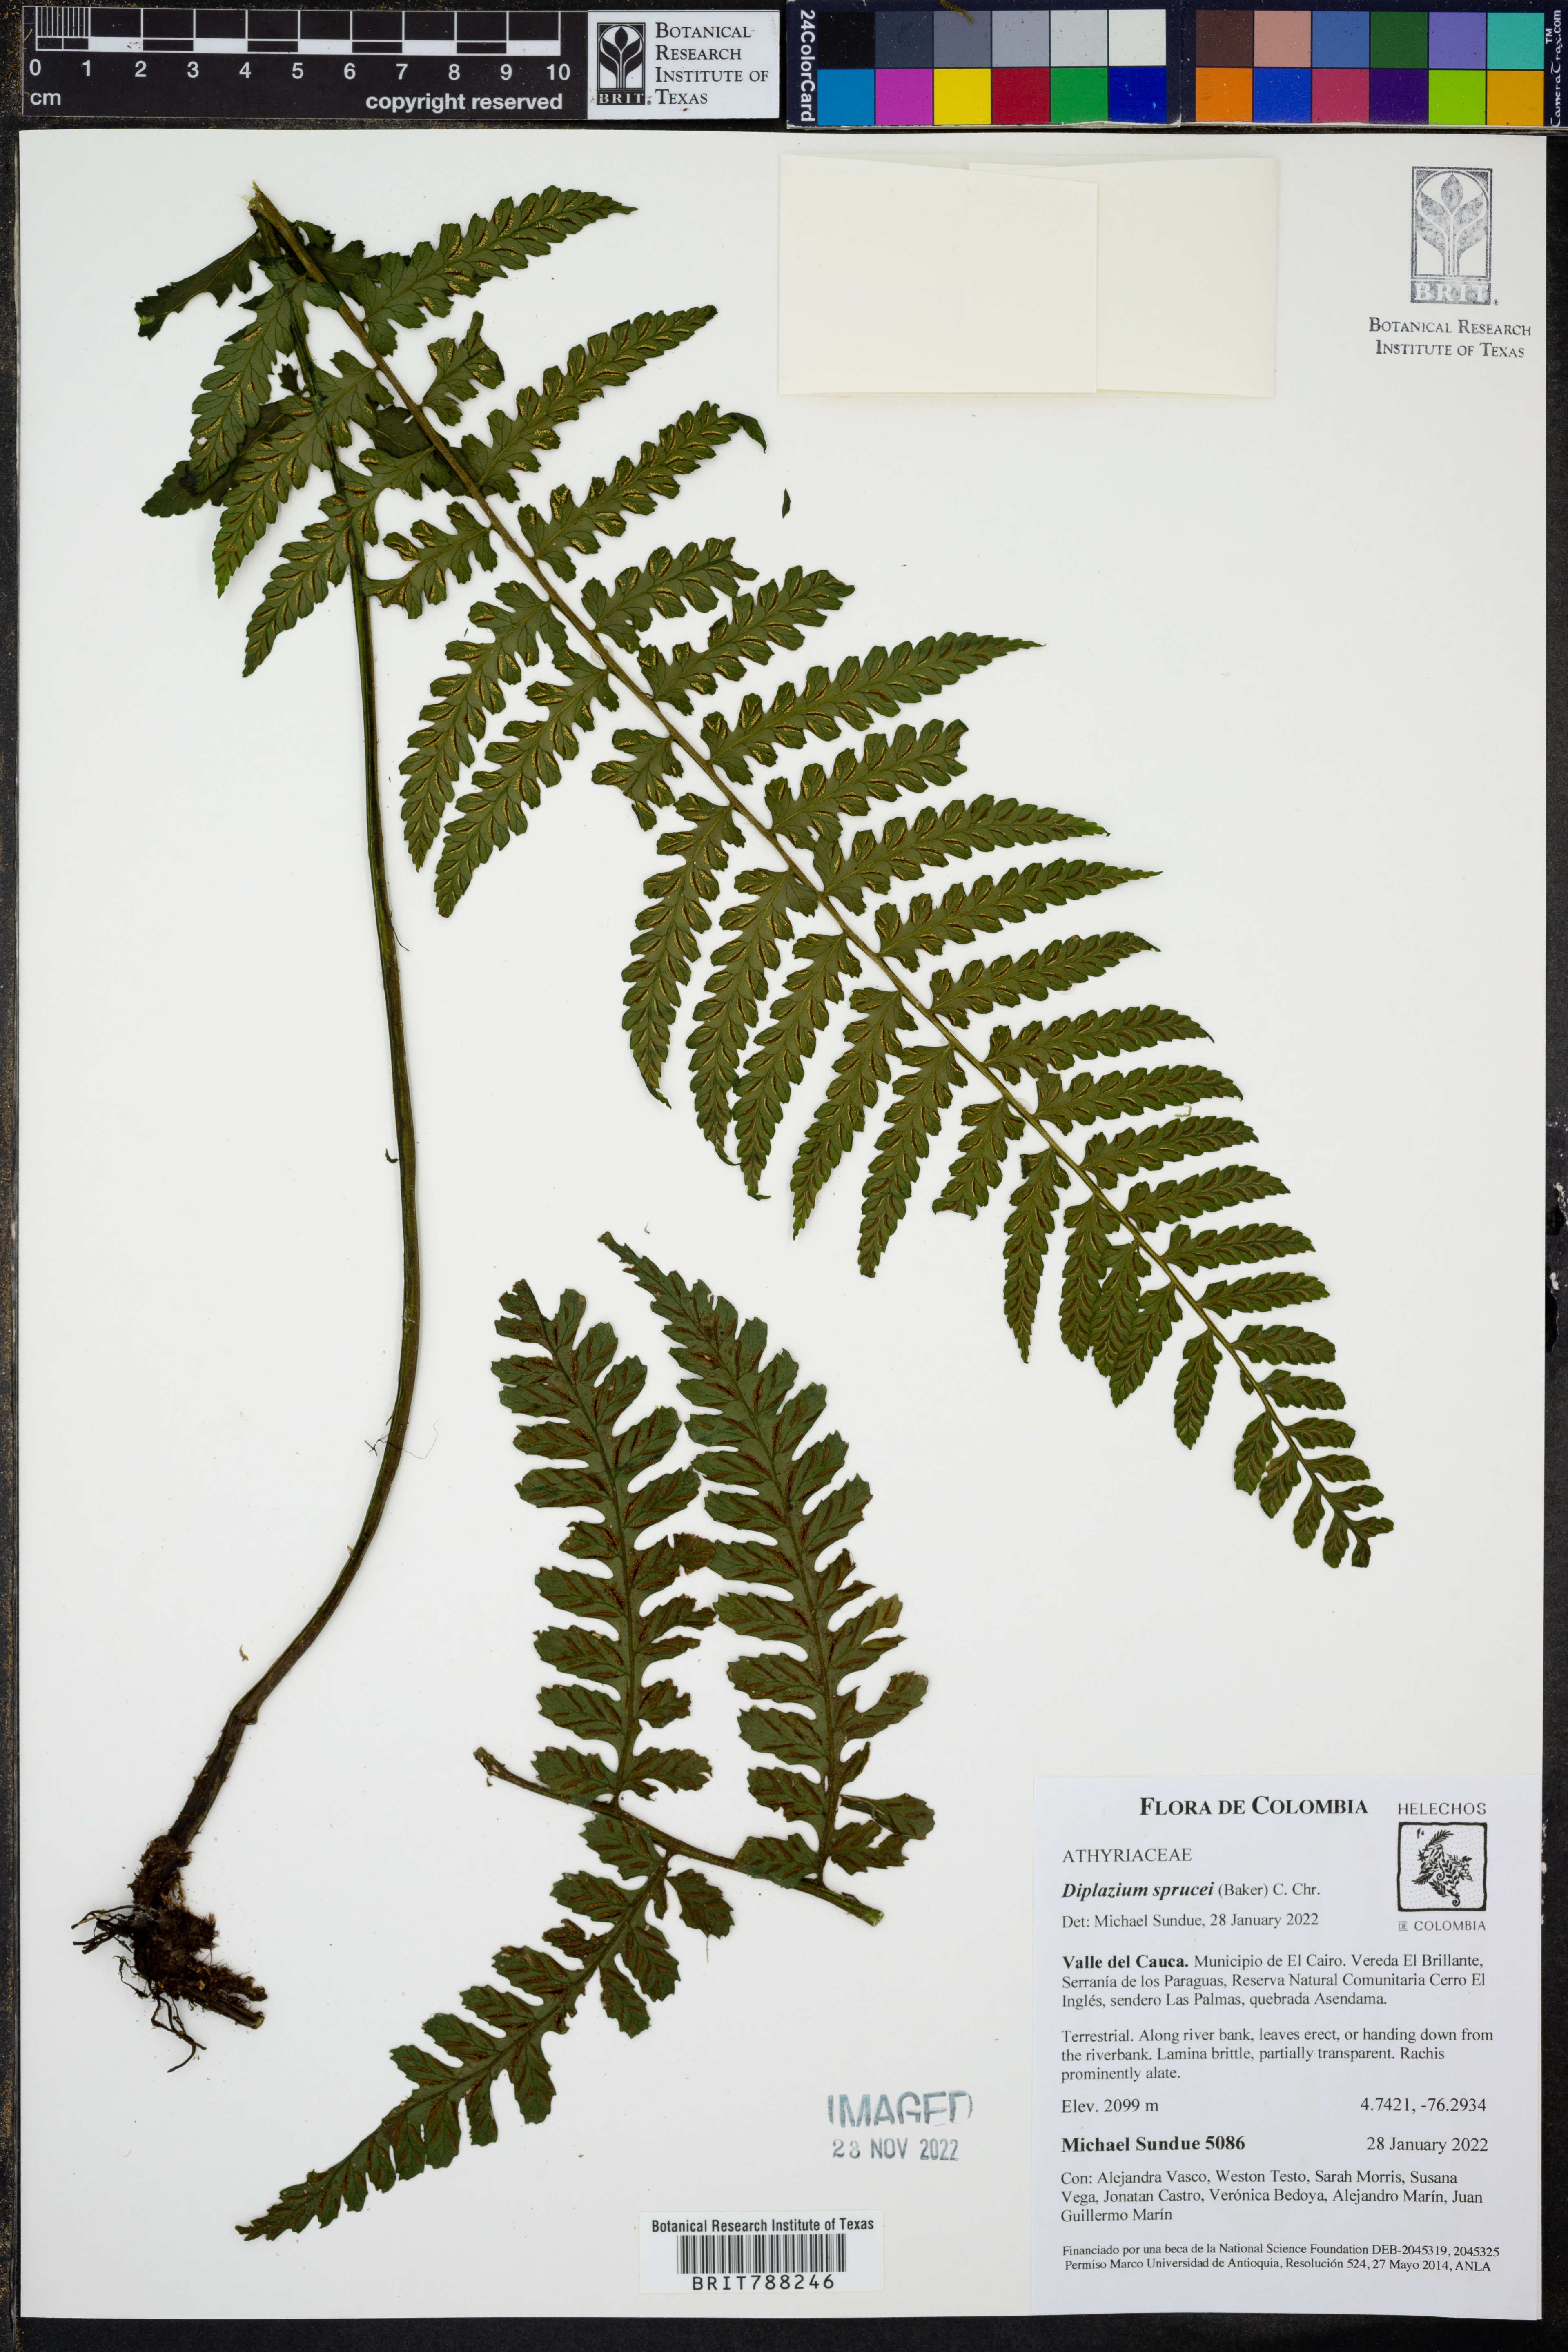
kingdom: Plantae
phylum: Tracheophyta
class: Polypodiopsida
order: Polypodiales
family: Athyriaceae
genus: Diplazium
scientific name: Diplazium sprucei
